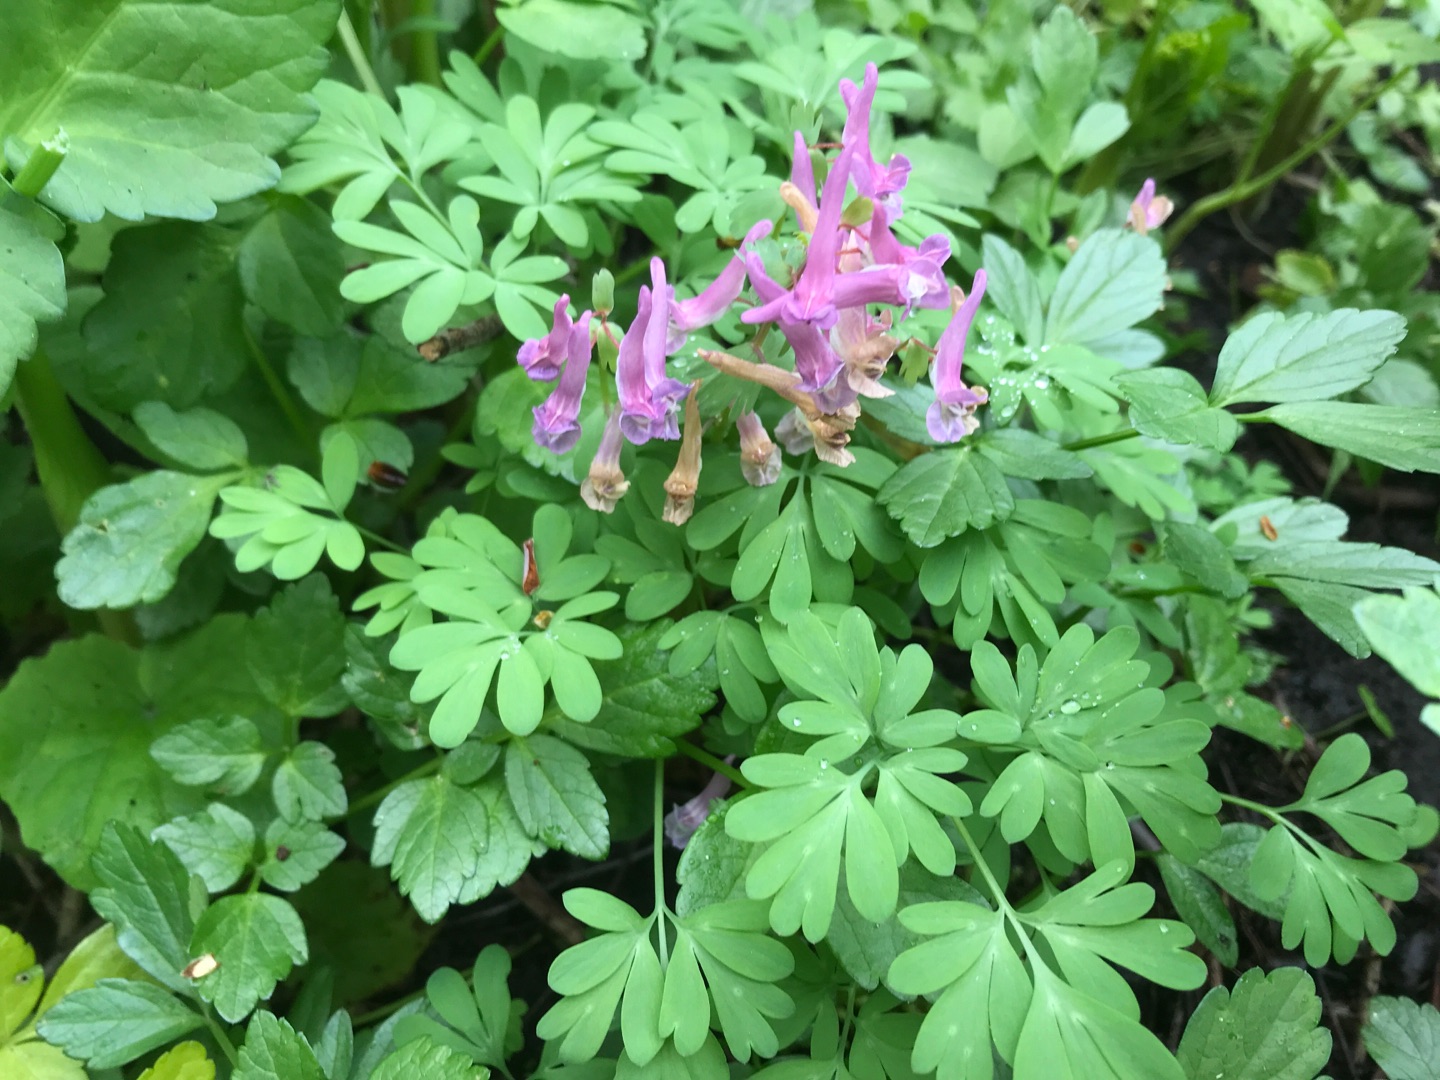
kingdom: Plantae
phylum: Tracheophyta
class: Magnoliopsida
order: Ranunculales
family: Papaveraceae
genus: Corydalis
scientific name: Corydalis solida
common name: Langstilket lærkespore
